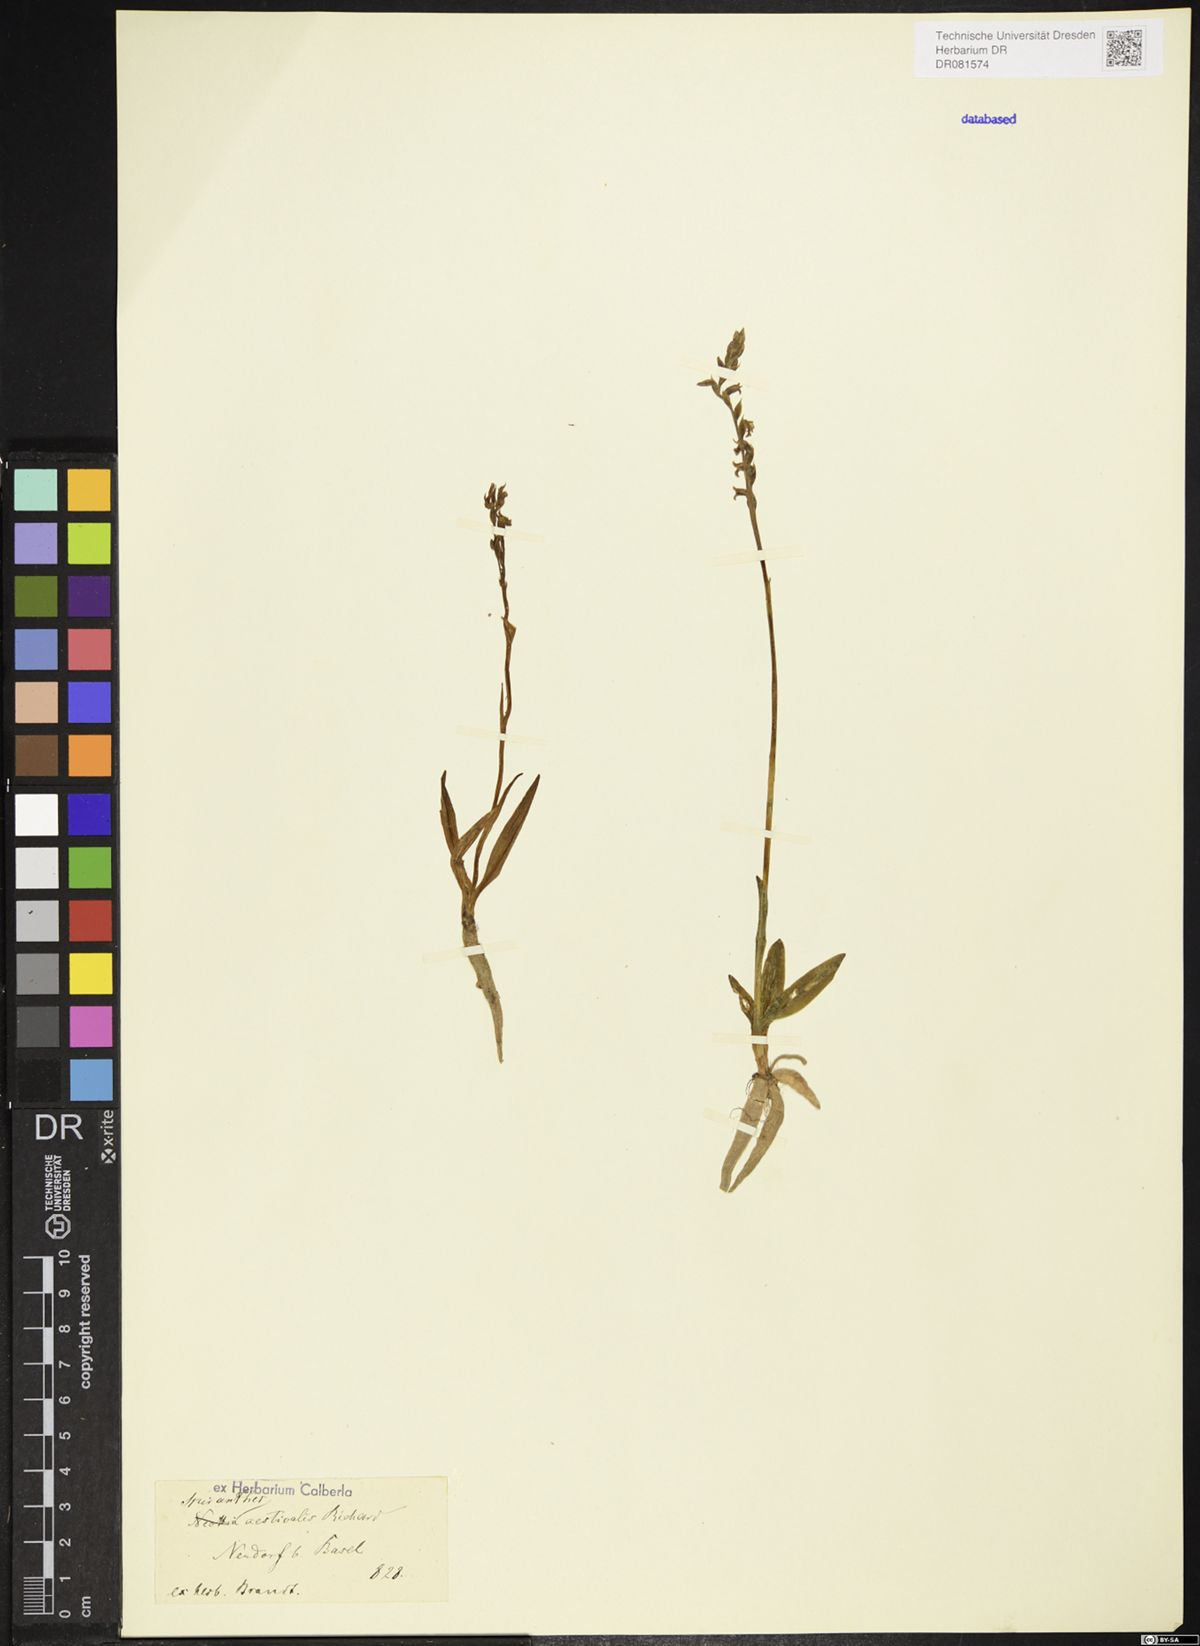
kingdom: Plantae
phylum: Tracheophyta
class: Liliopsida
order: Asparagales
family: Orchidaceae
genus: Spiranthes
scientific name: Spiranthes aestivalis
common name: Summer lady's-tresses
